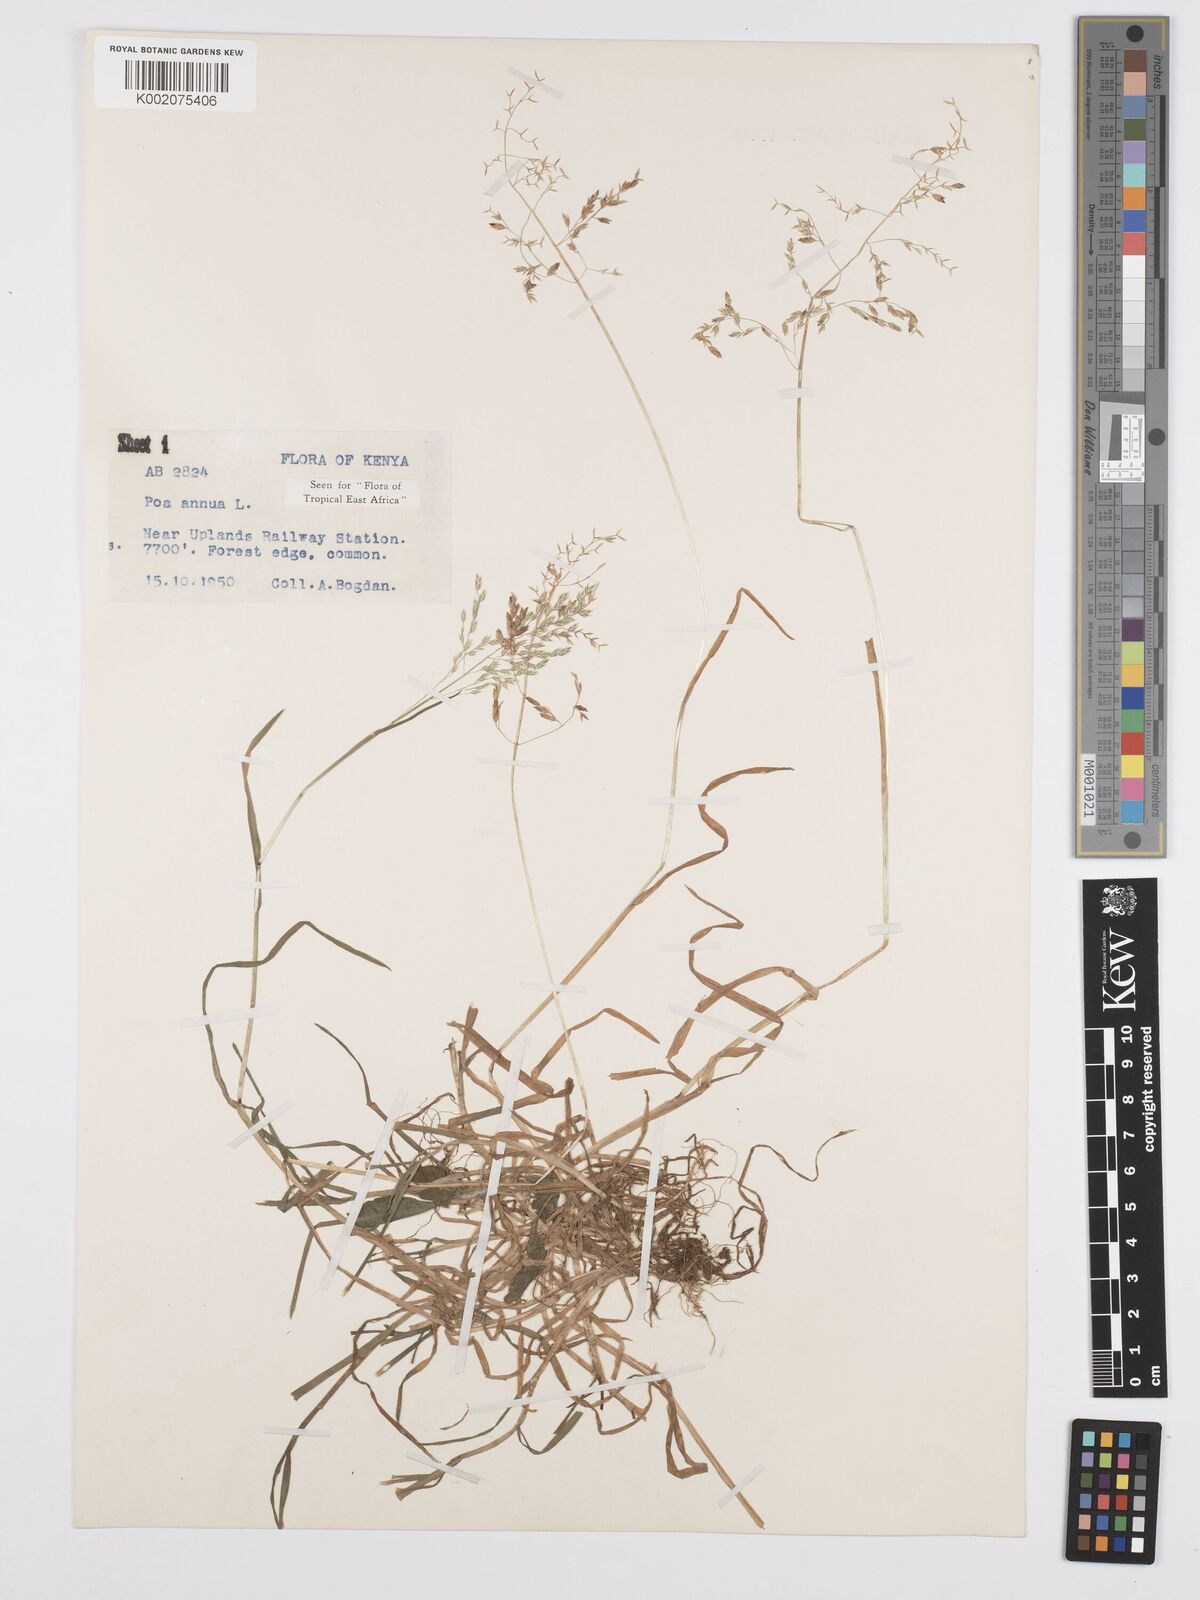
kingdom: Plantae
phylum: Tracheophyta
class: Liliopsida
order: Poales
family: Poaceae
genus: Poa
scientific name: Poa annua
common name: Annual bluegrass
